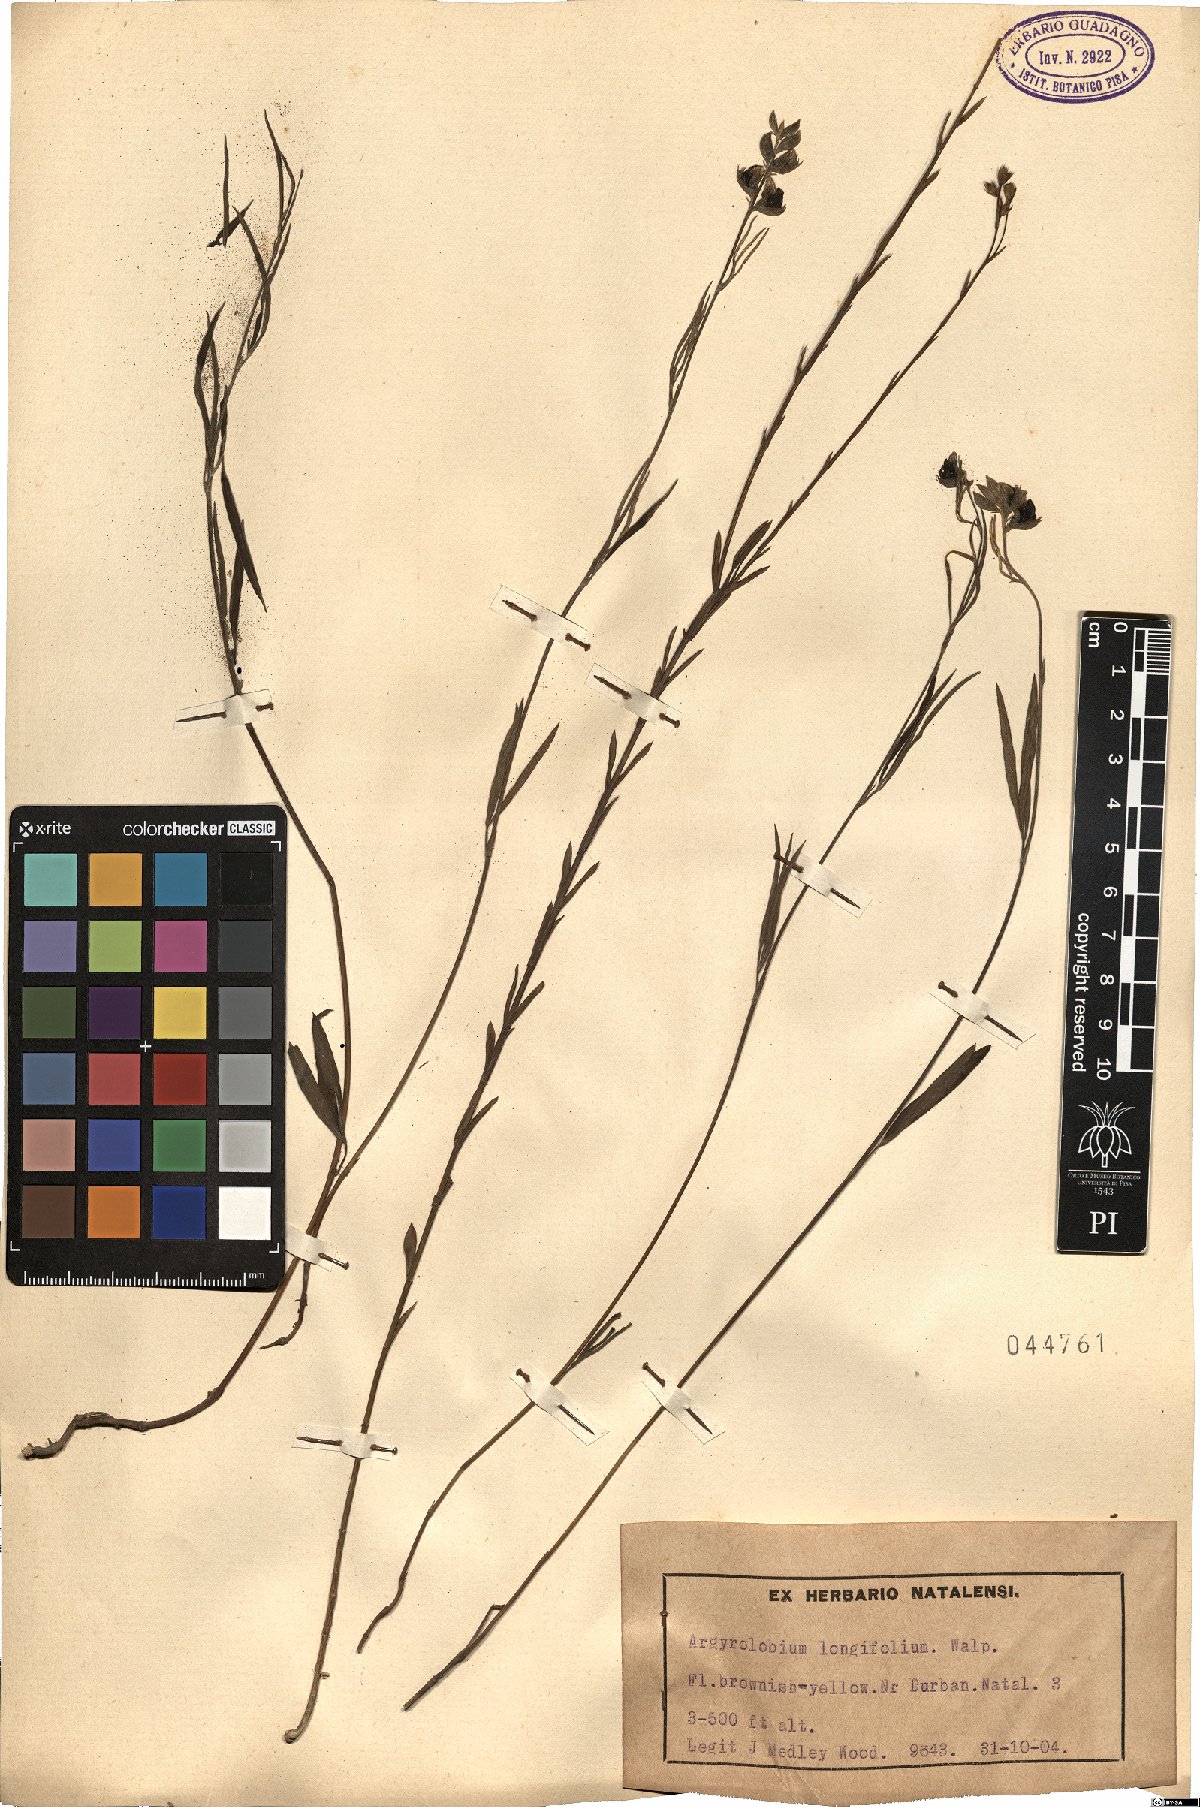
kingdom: Plantae
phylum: Tracheophyta
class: Magnoliopsida
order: Fabales
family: Fabaceae
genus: Argyrolobium
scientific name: Argyrolobium longifolium
